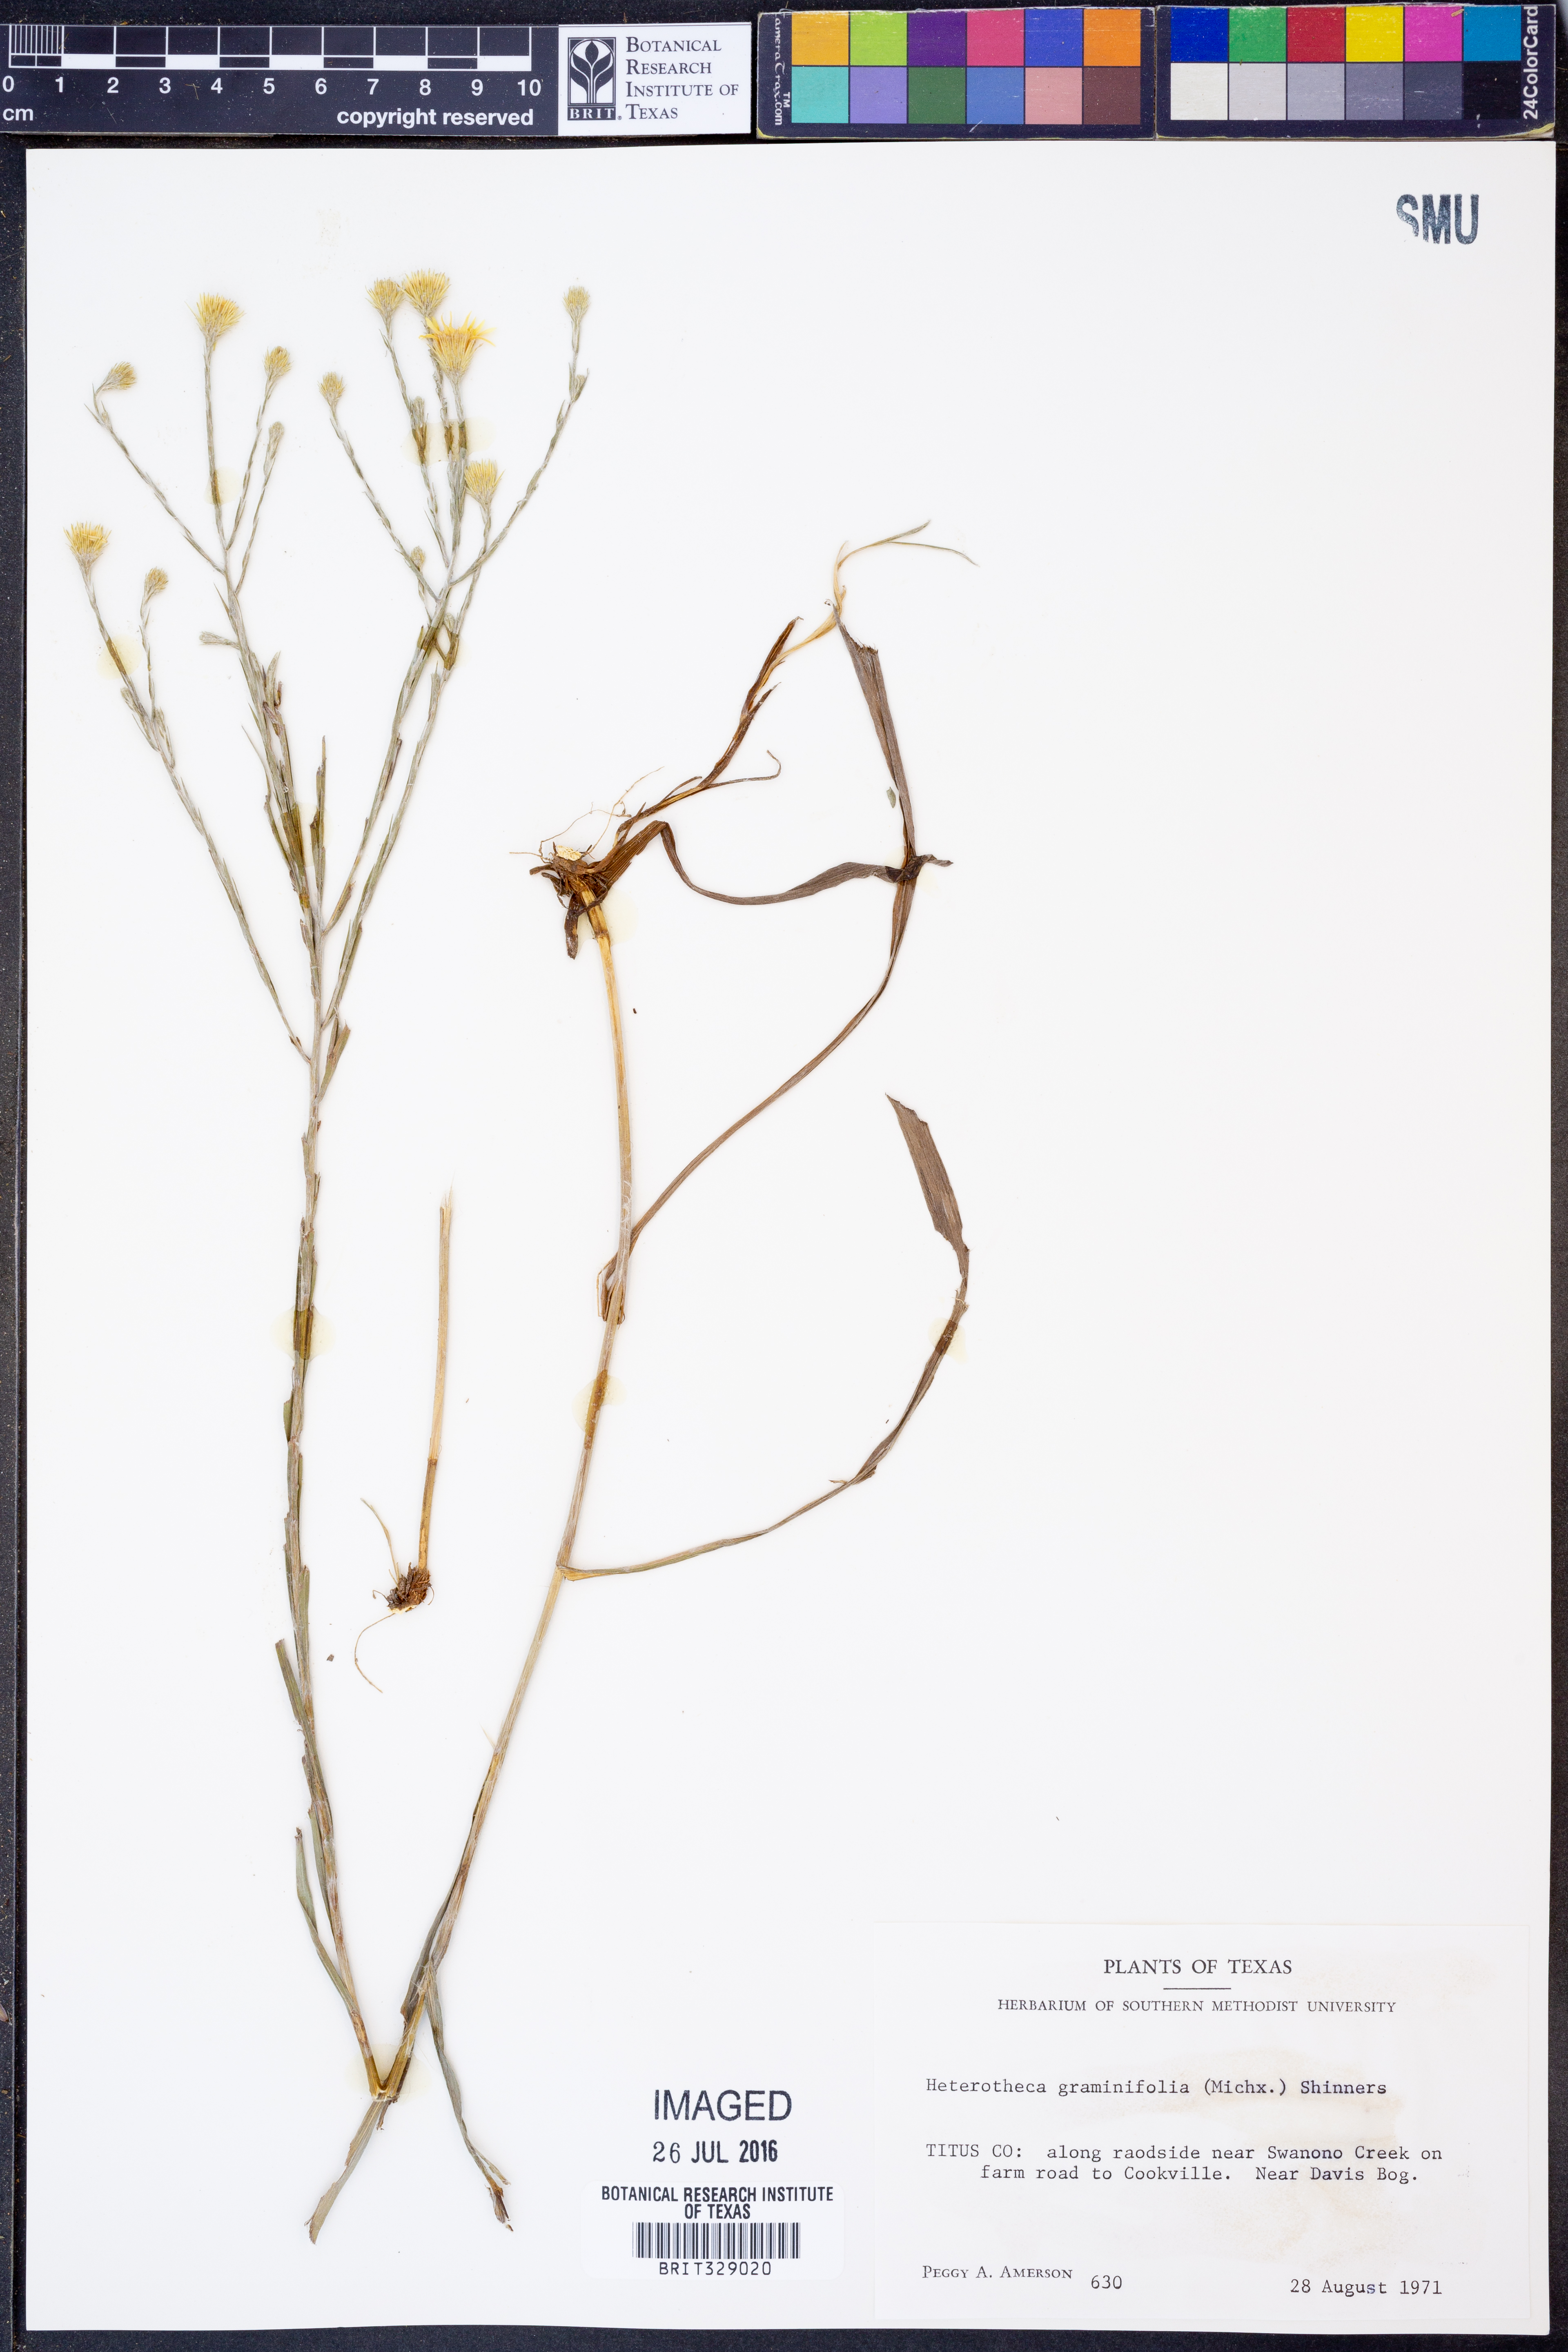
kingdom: Plantae
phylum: Tracheophyta
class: Magnoliopsida
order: Asterales
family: Asteraceae
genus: Pityopsis
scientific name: Pityopsis graminifolia
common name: Grass-leaf golden-aster
